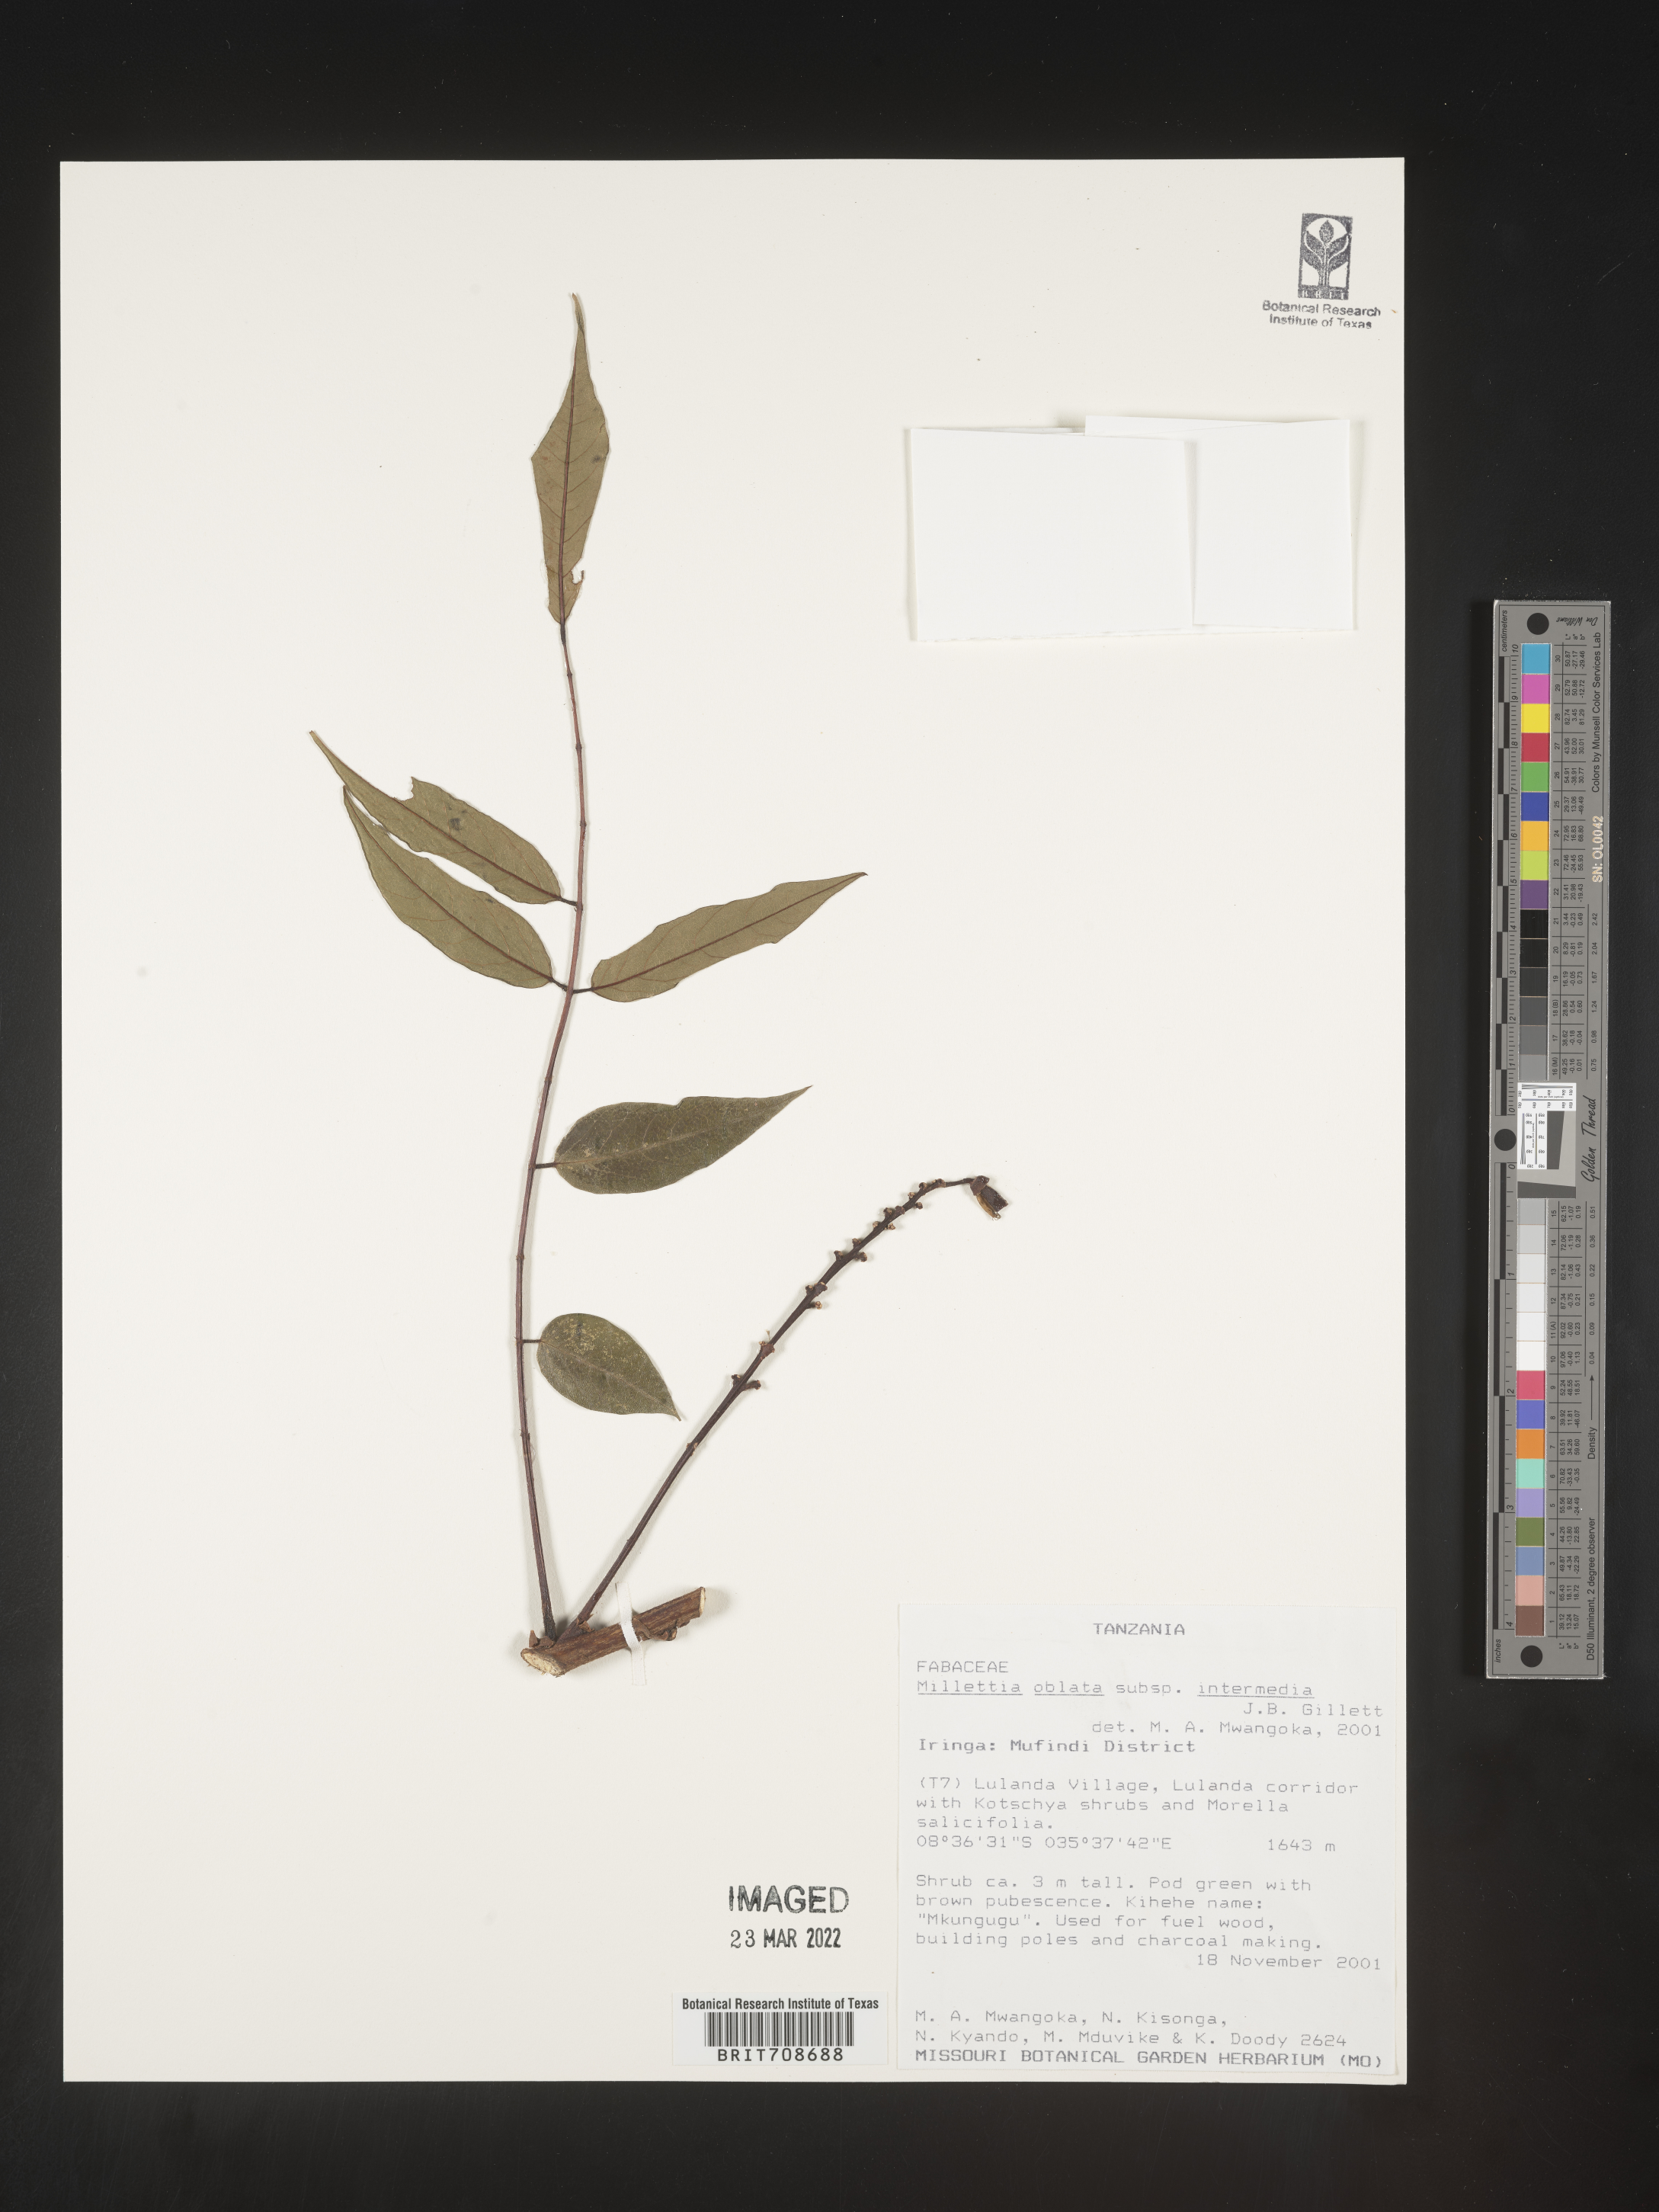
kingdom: Plantae
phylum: Tracheophyta
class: Magnoliopsida
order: Fabales
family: Fabaceae
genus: Millettia
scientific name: Millettia
